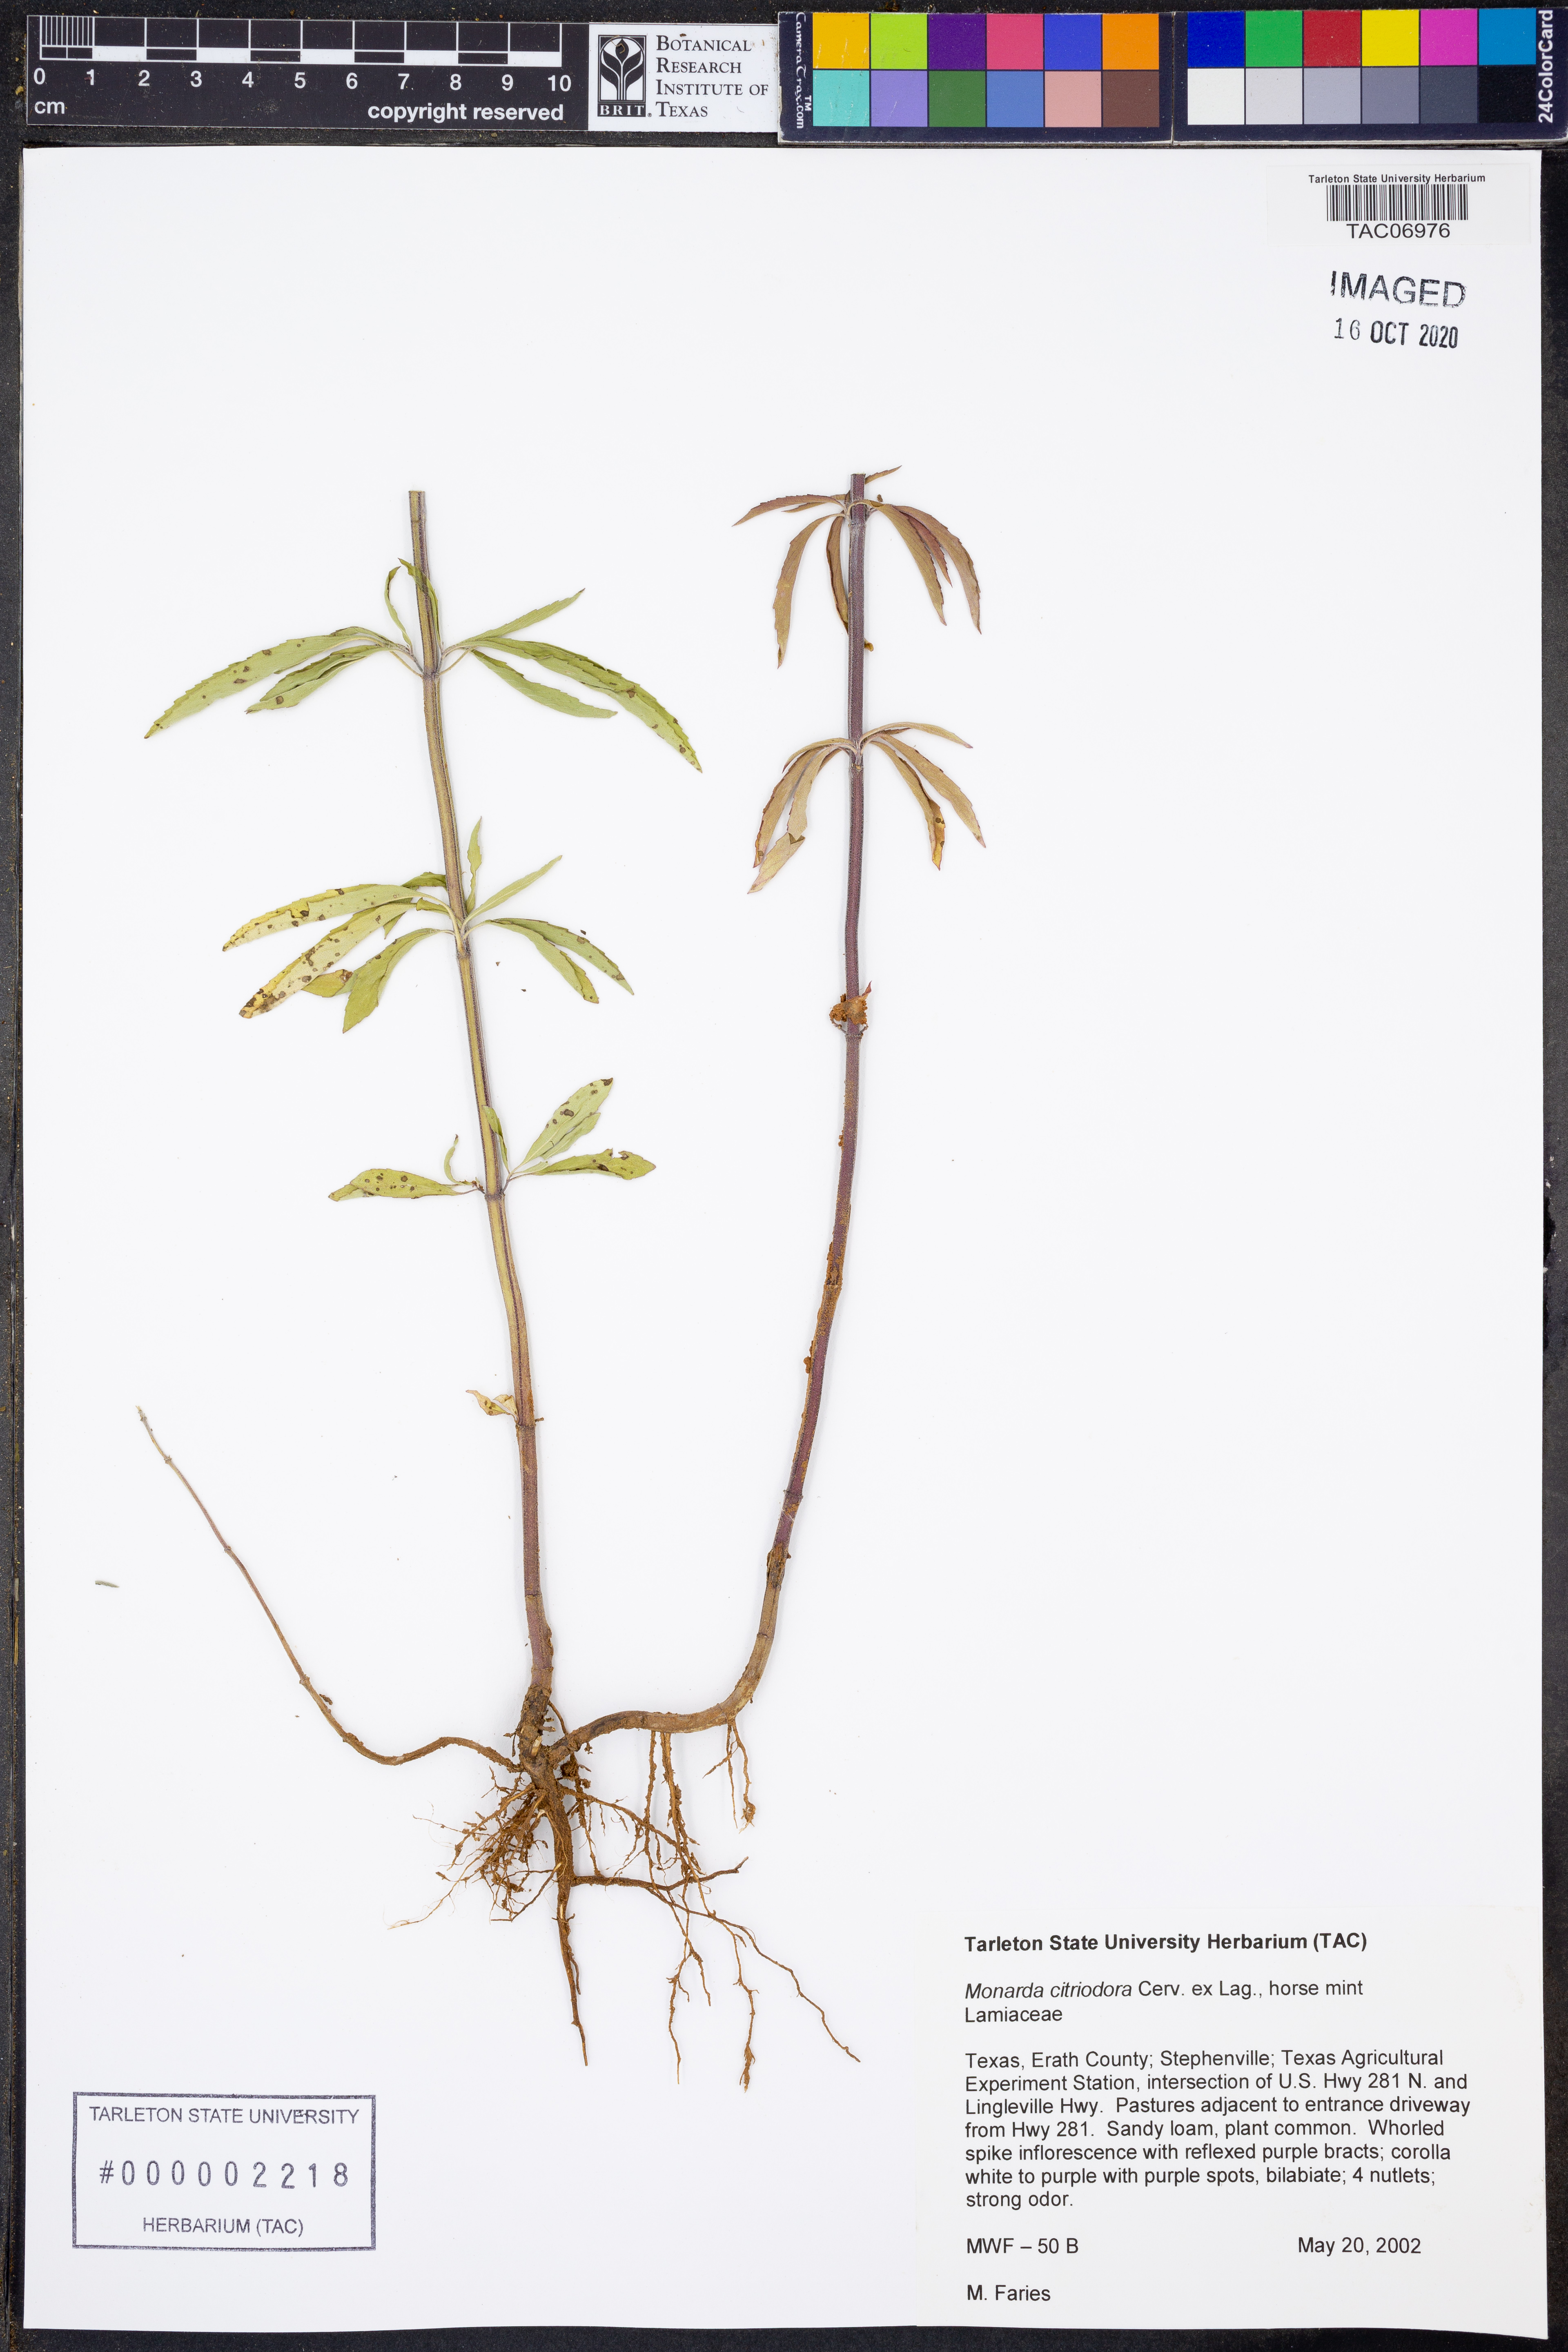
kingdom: Plantae
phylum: Tracheophyta
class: Magnoliopsida
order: Lamiales
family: Lamiaceae
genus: Monarda
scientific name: Monarda citriodora
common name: Lemon beebalm
